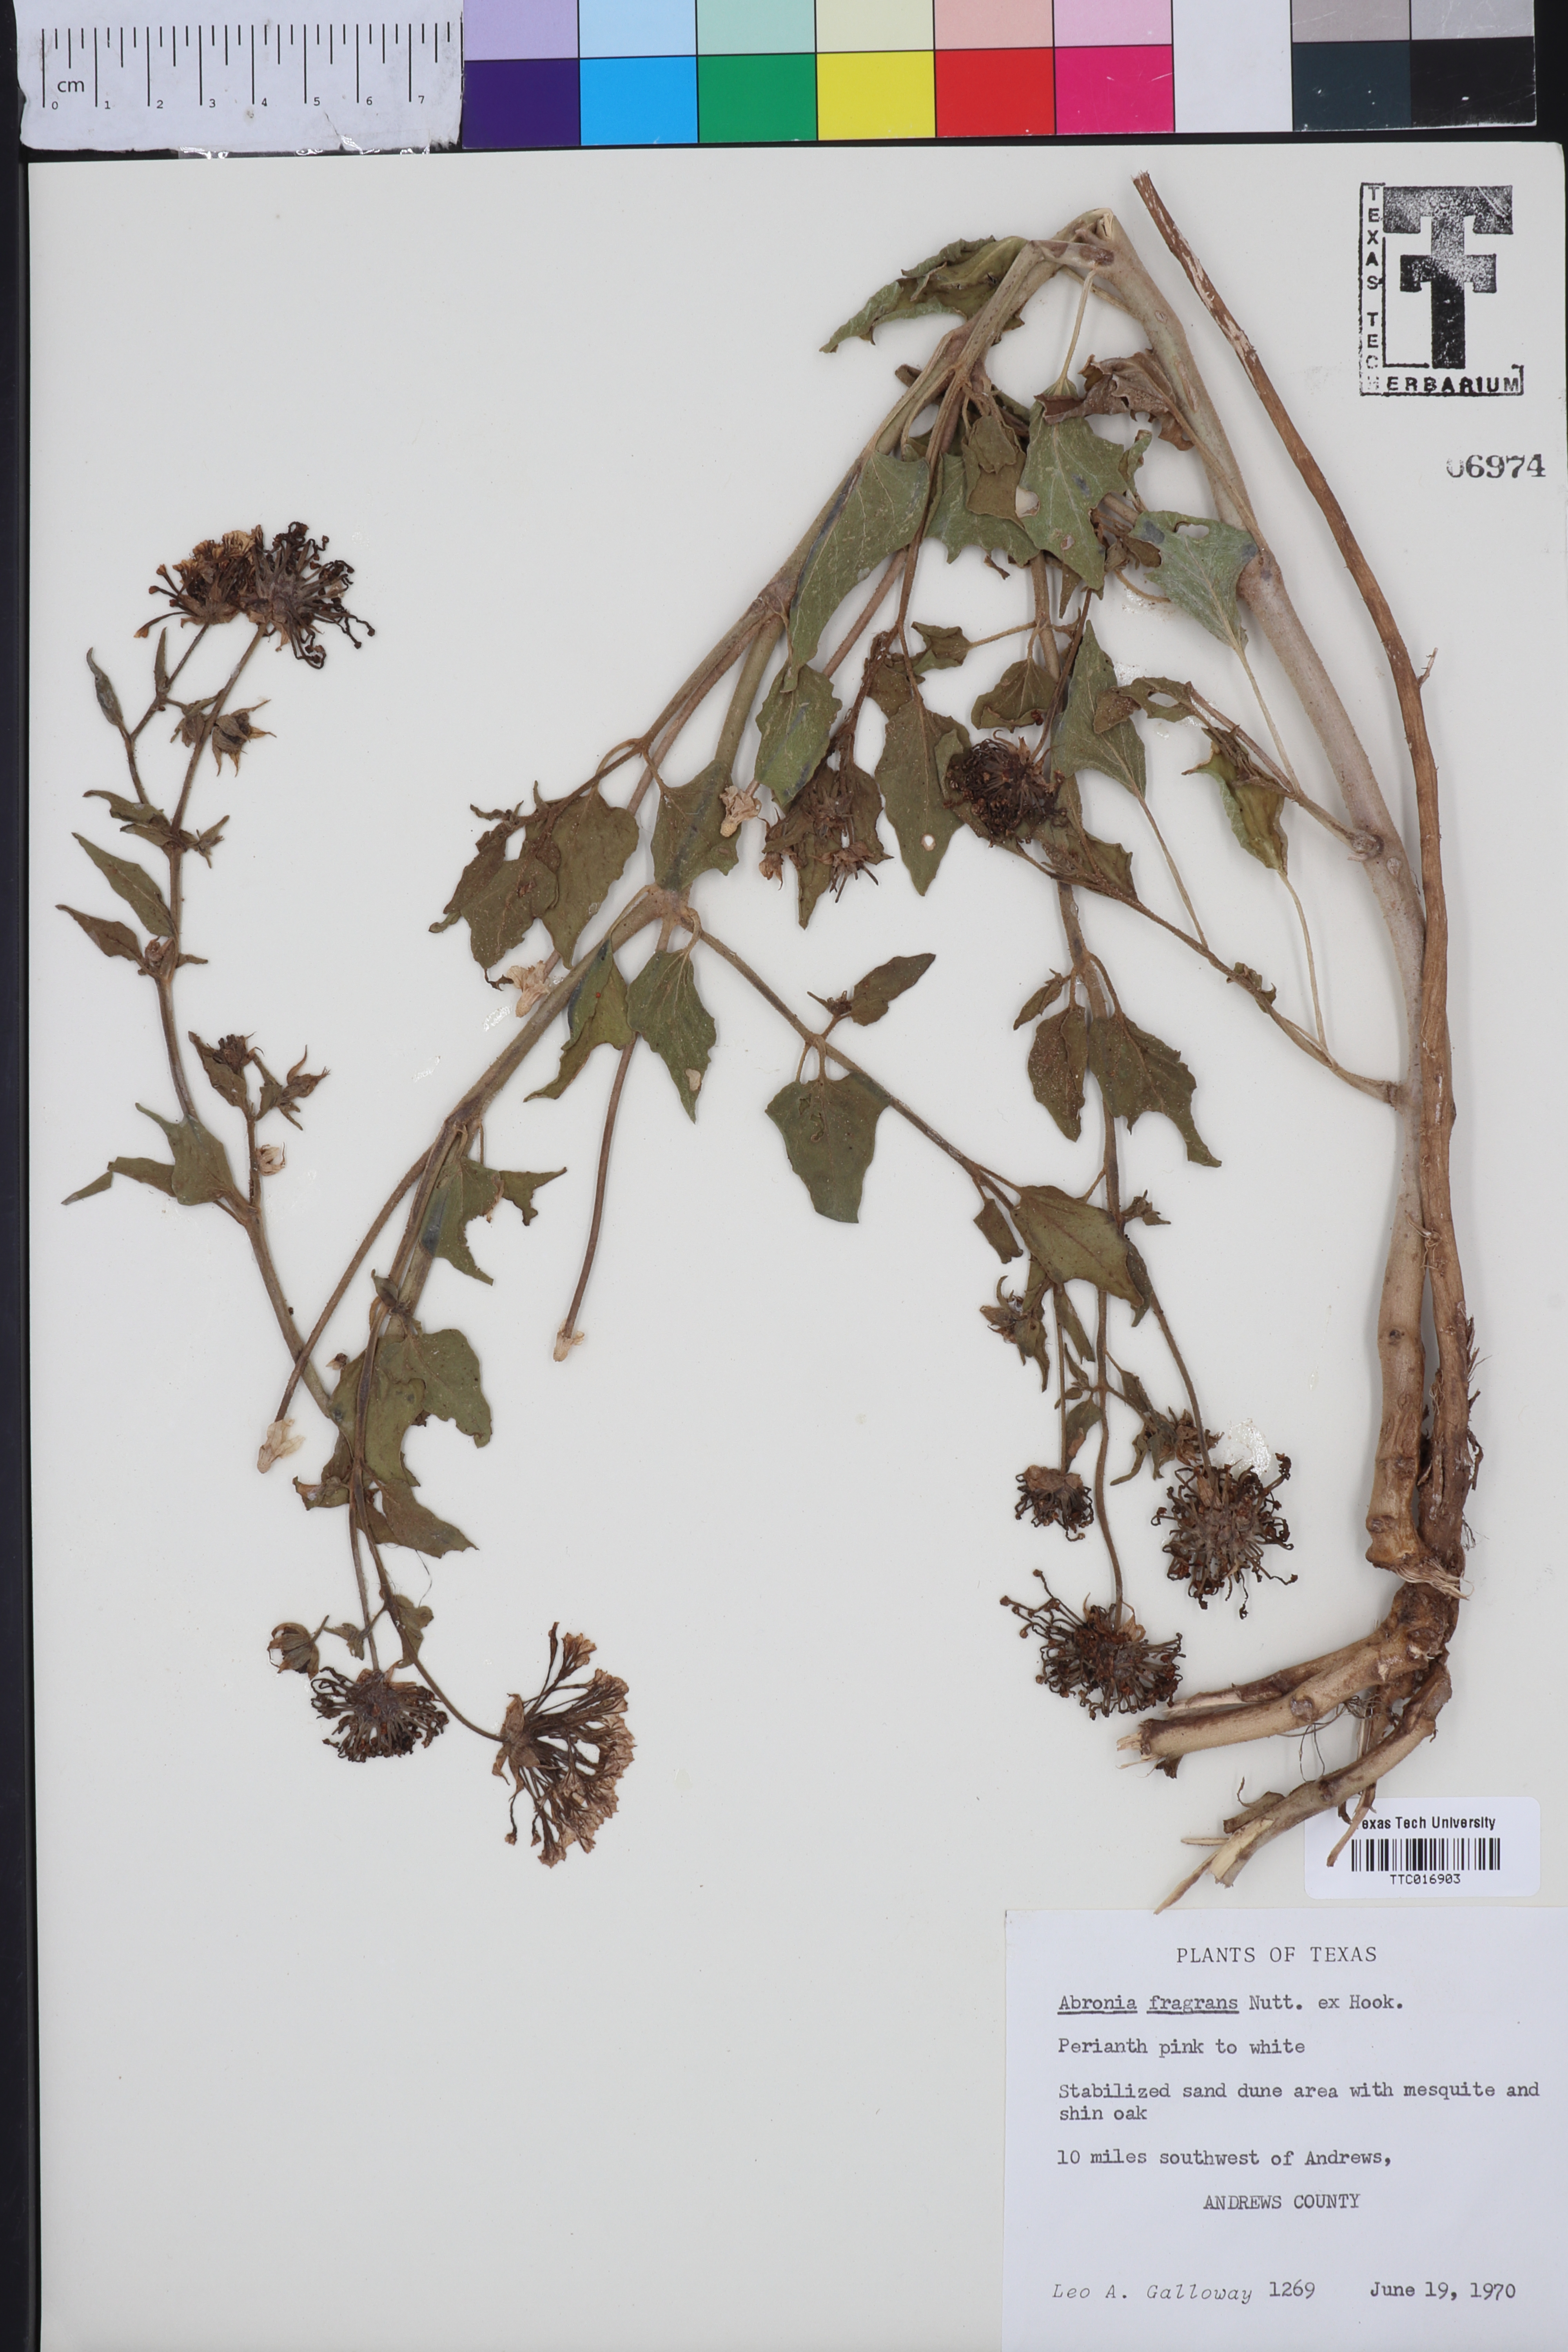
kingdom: Plantae
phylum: Tracheophyta
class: Magnoliopsida
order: Caryophyllales
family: Nyctaginaceae
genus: Abronia
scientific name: Abronia fragrans
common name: Fragrant sand-verbena
